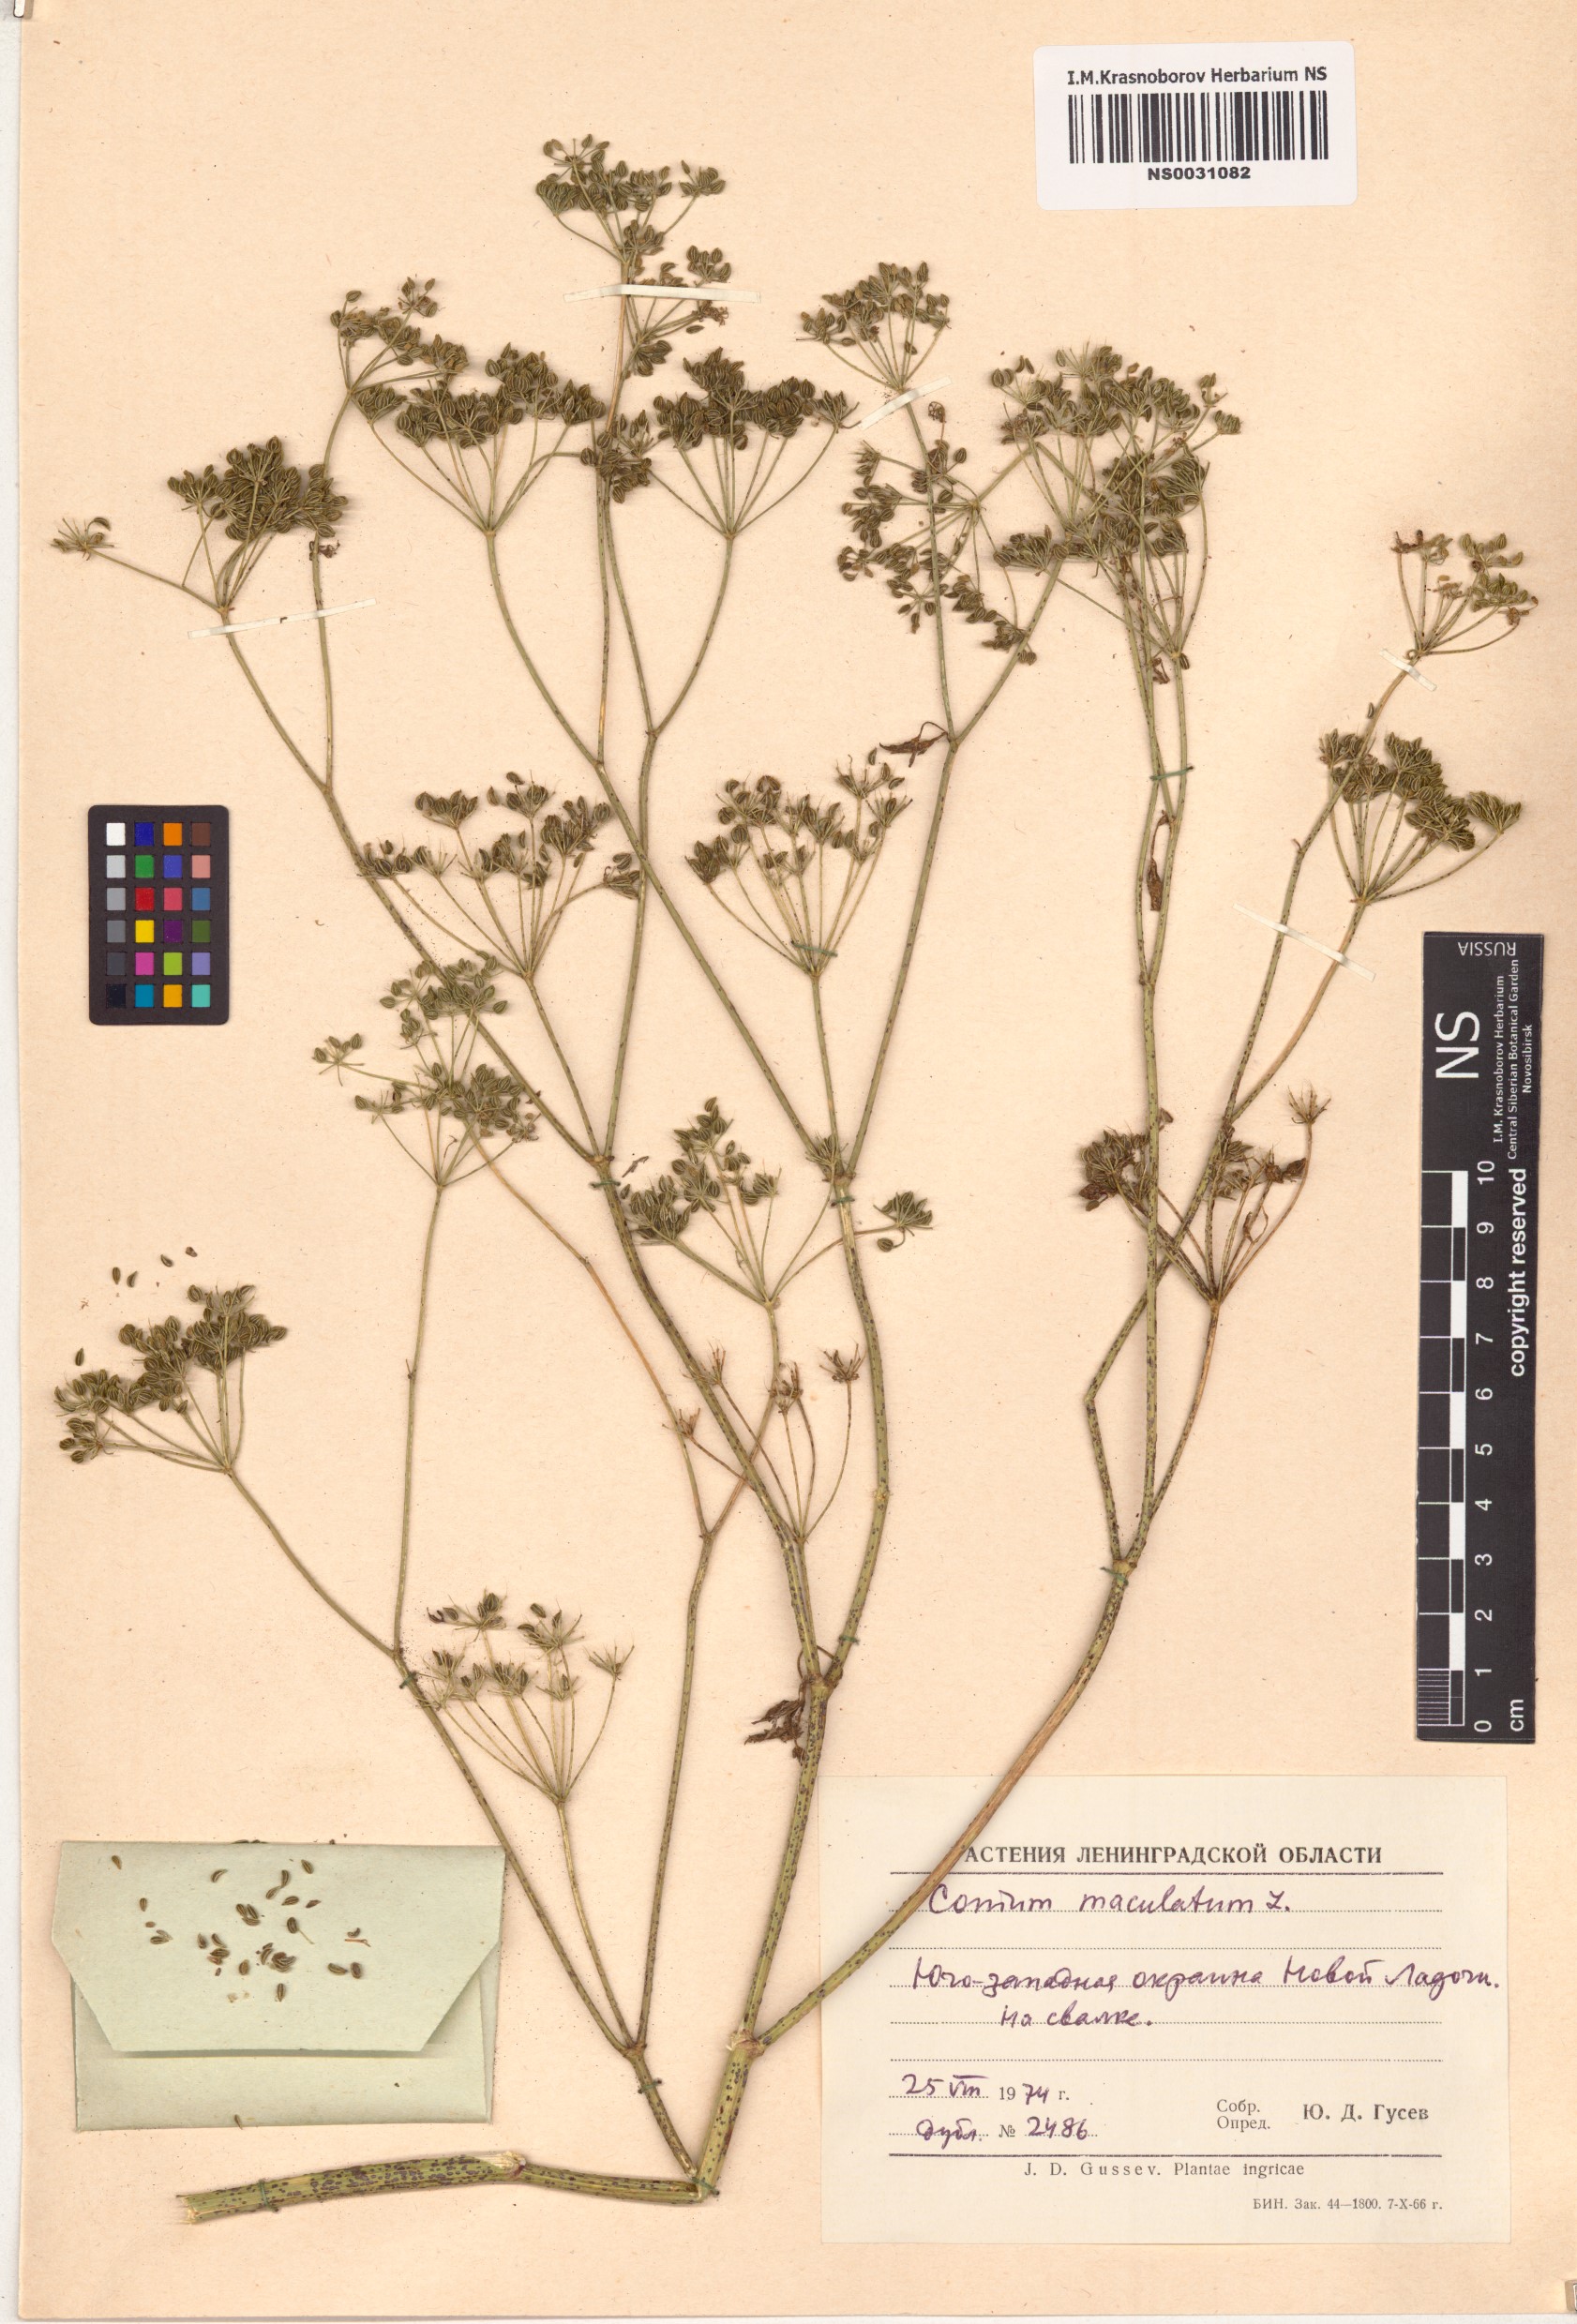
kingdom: Plantae
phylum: Tracheophyta
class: Magnoliopsida
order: Apiales
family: Apiaceae
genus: Conium
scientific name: Conium maculatum
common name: Hemlock
